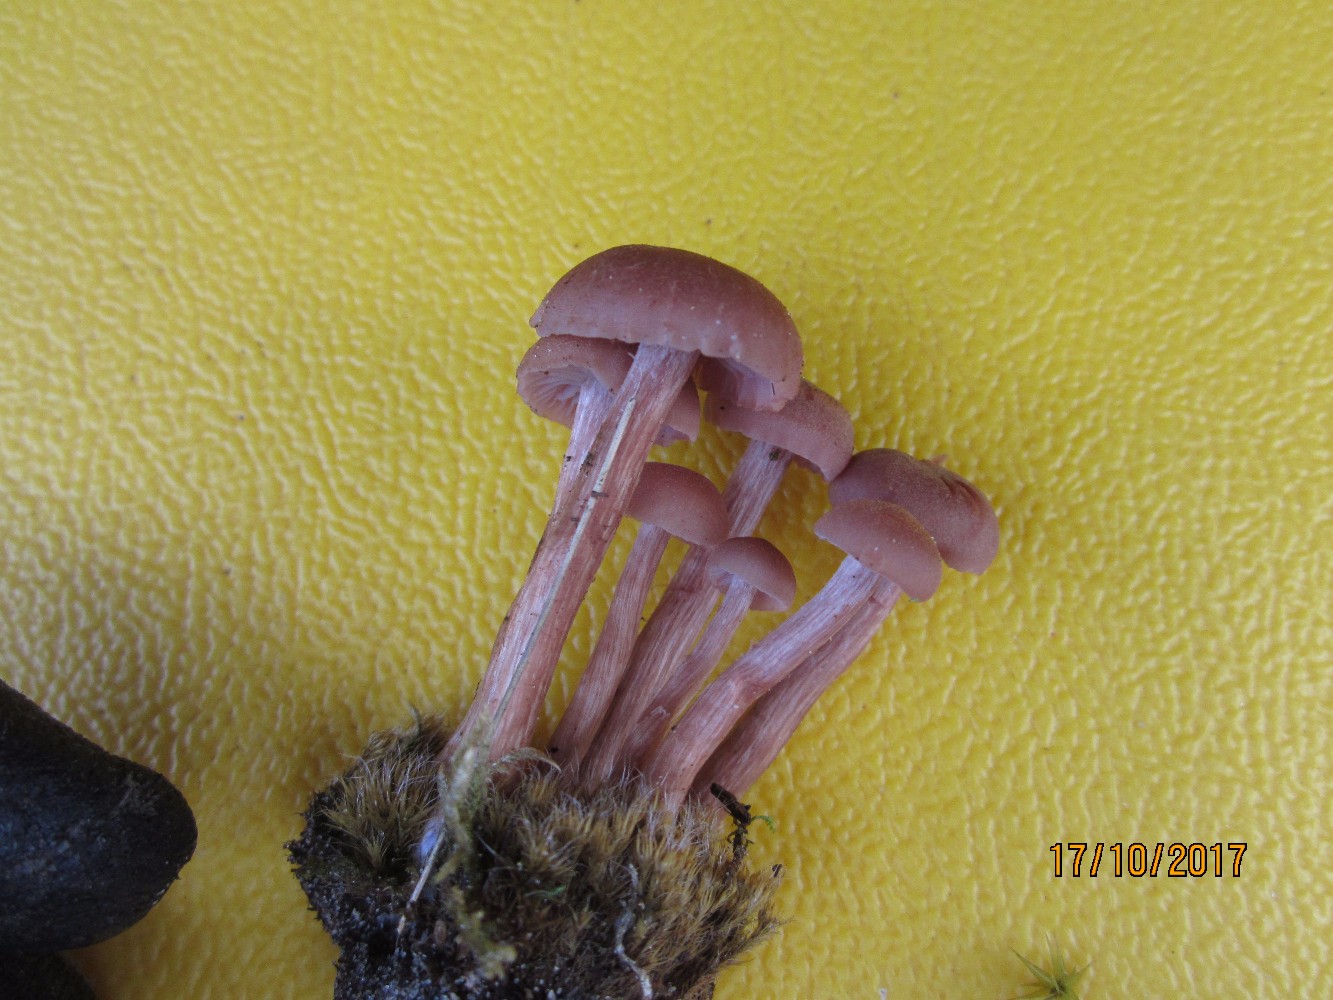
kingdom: Fungi
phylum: Basidiomycota
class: Agaricomycetes
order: Agaricales
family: Hydnangiaceae
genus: Laccaria
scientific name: Laccaria bicolor
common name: tvefarvet ametysthat
